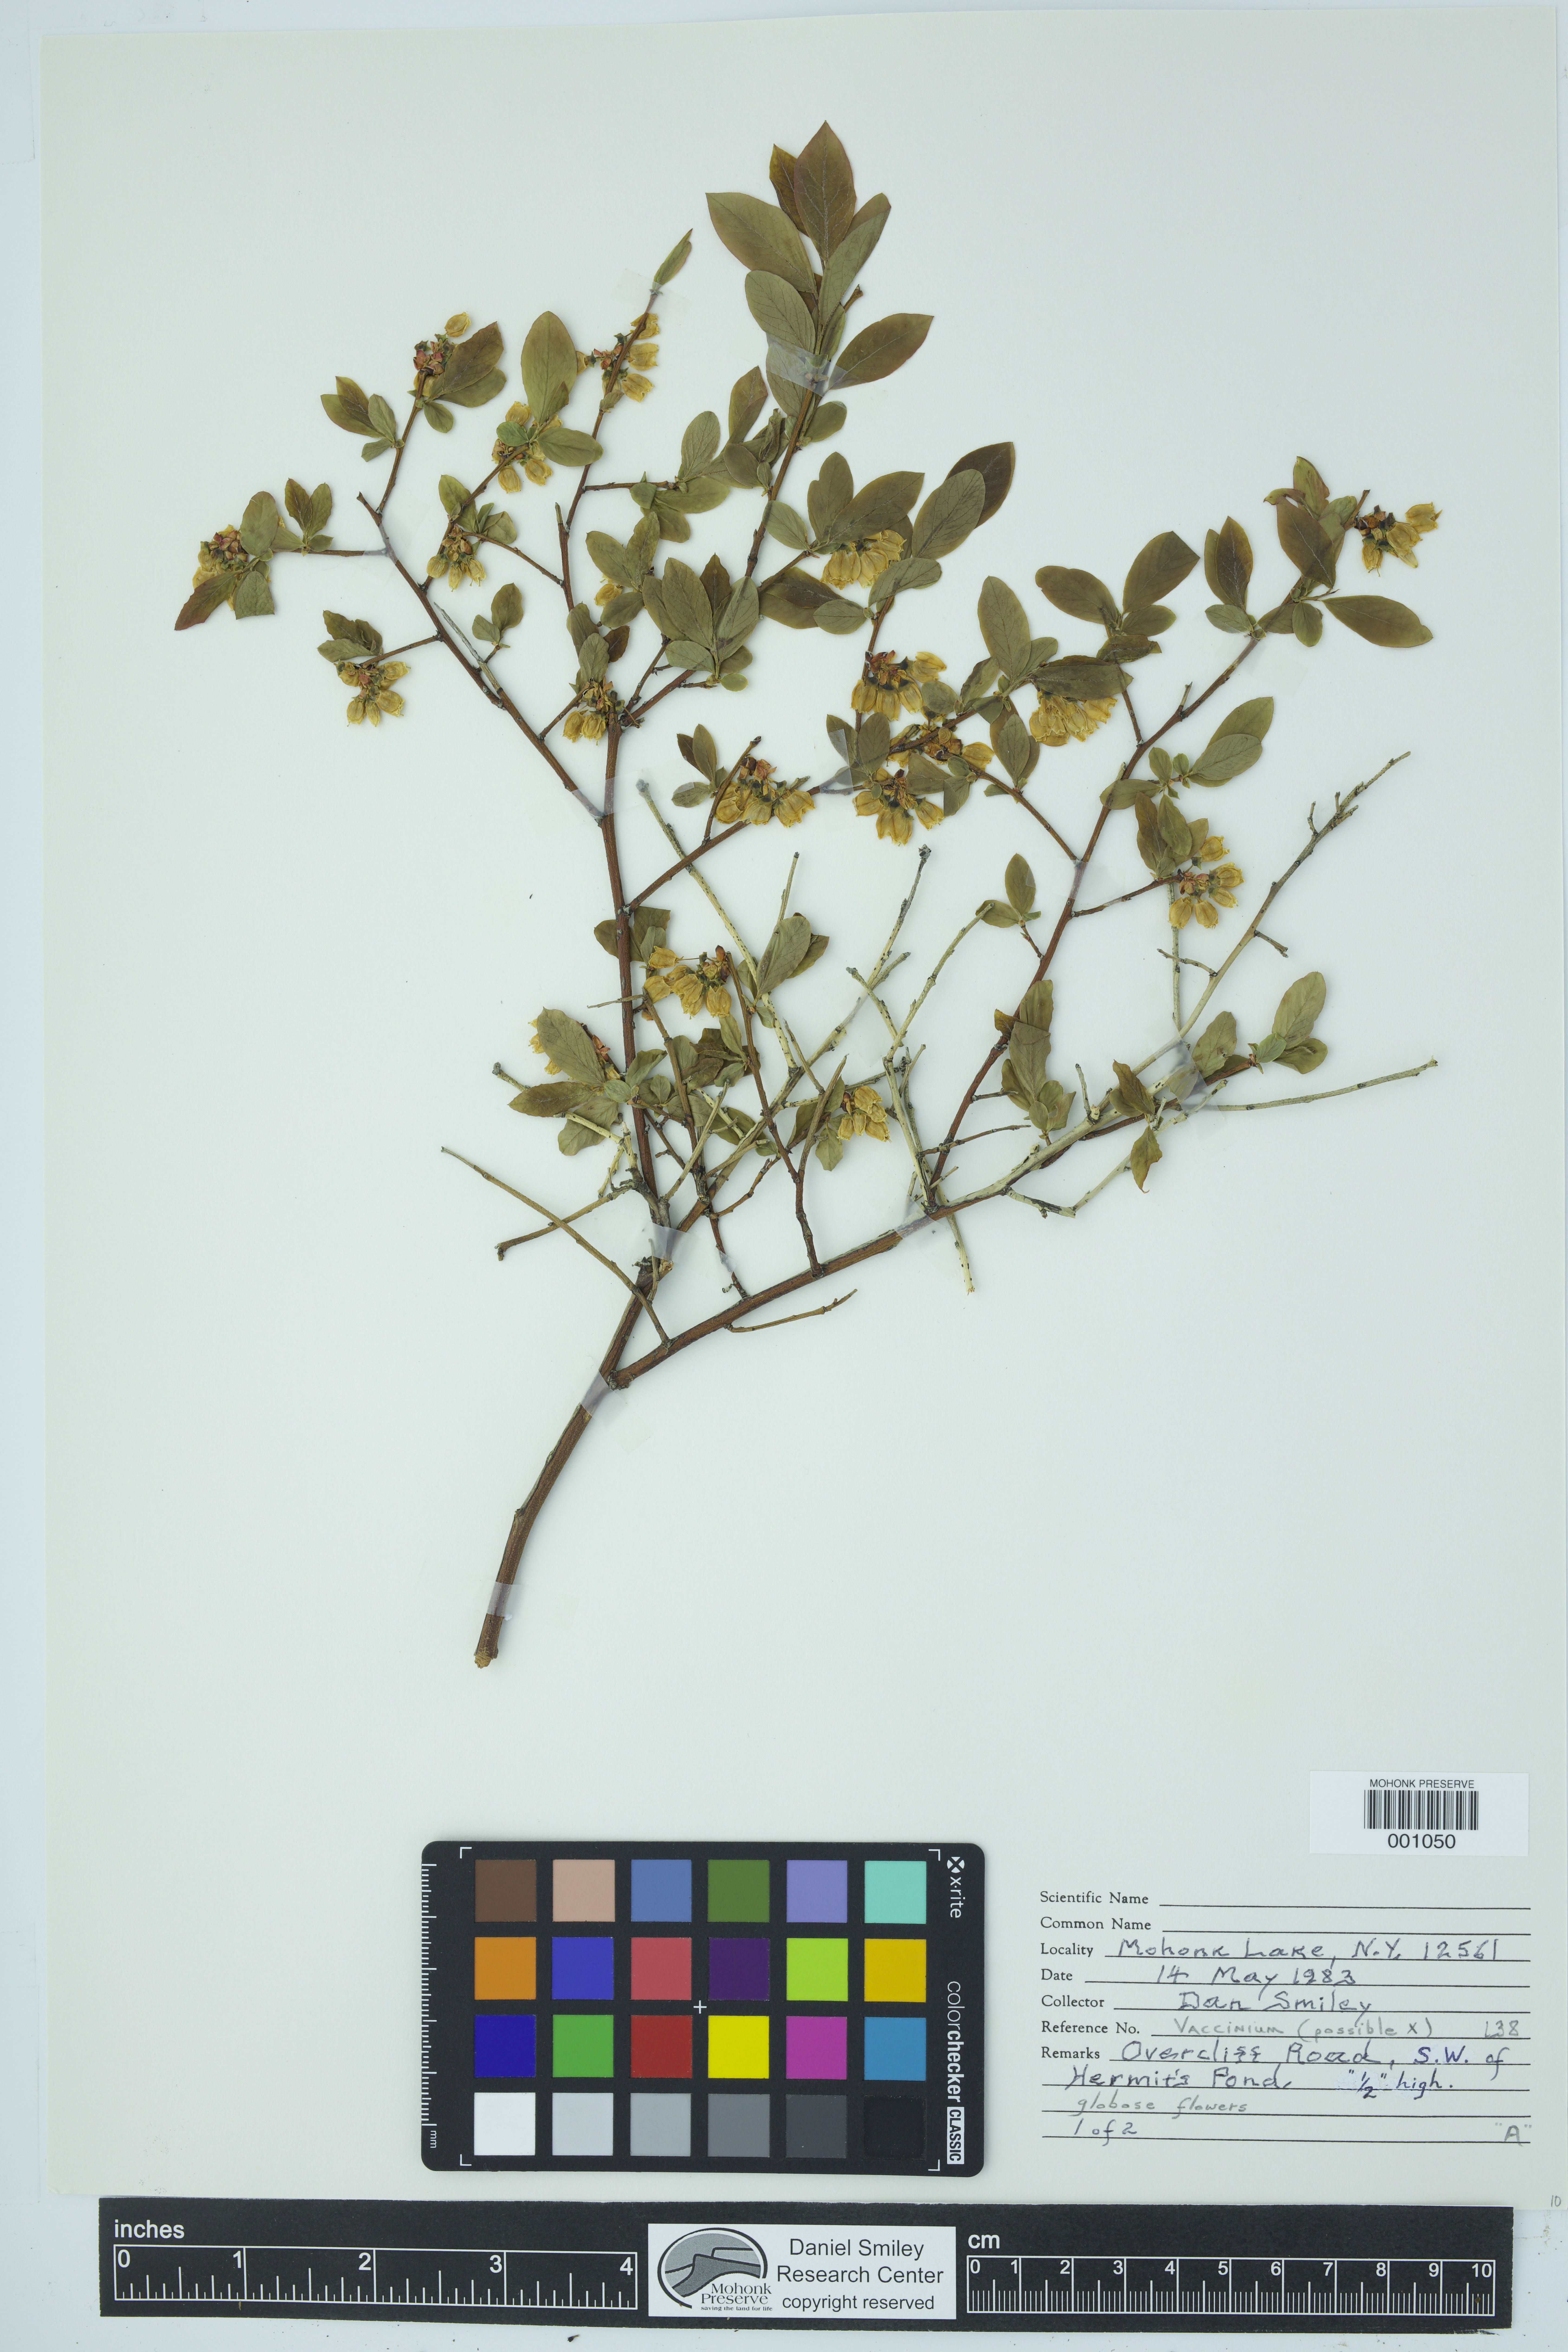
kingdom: Plantae
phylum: Tracheophyta
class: Magnoliopsida
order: Ericales
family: Ericaceae
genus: Vaccinium
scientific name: Vaccinium
